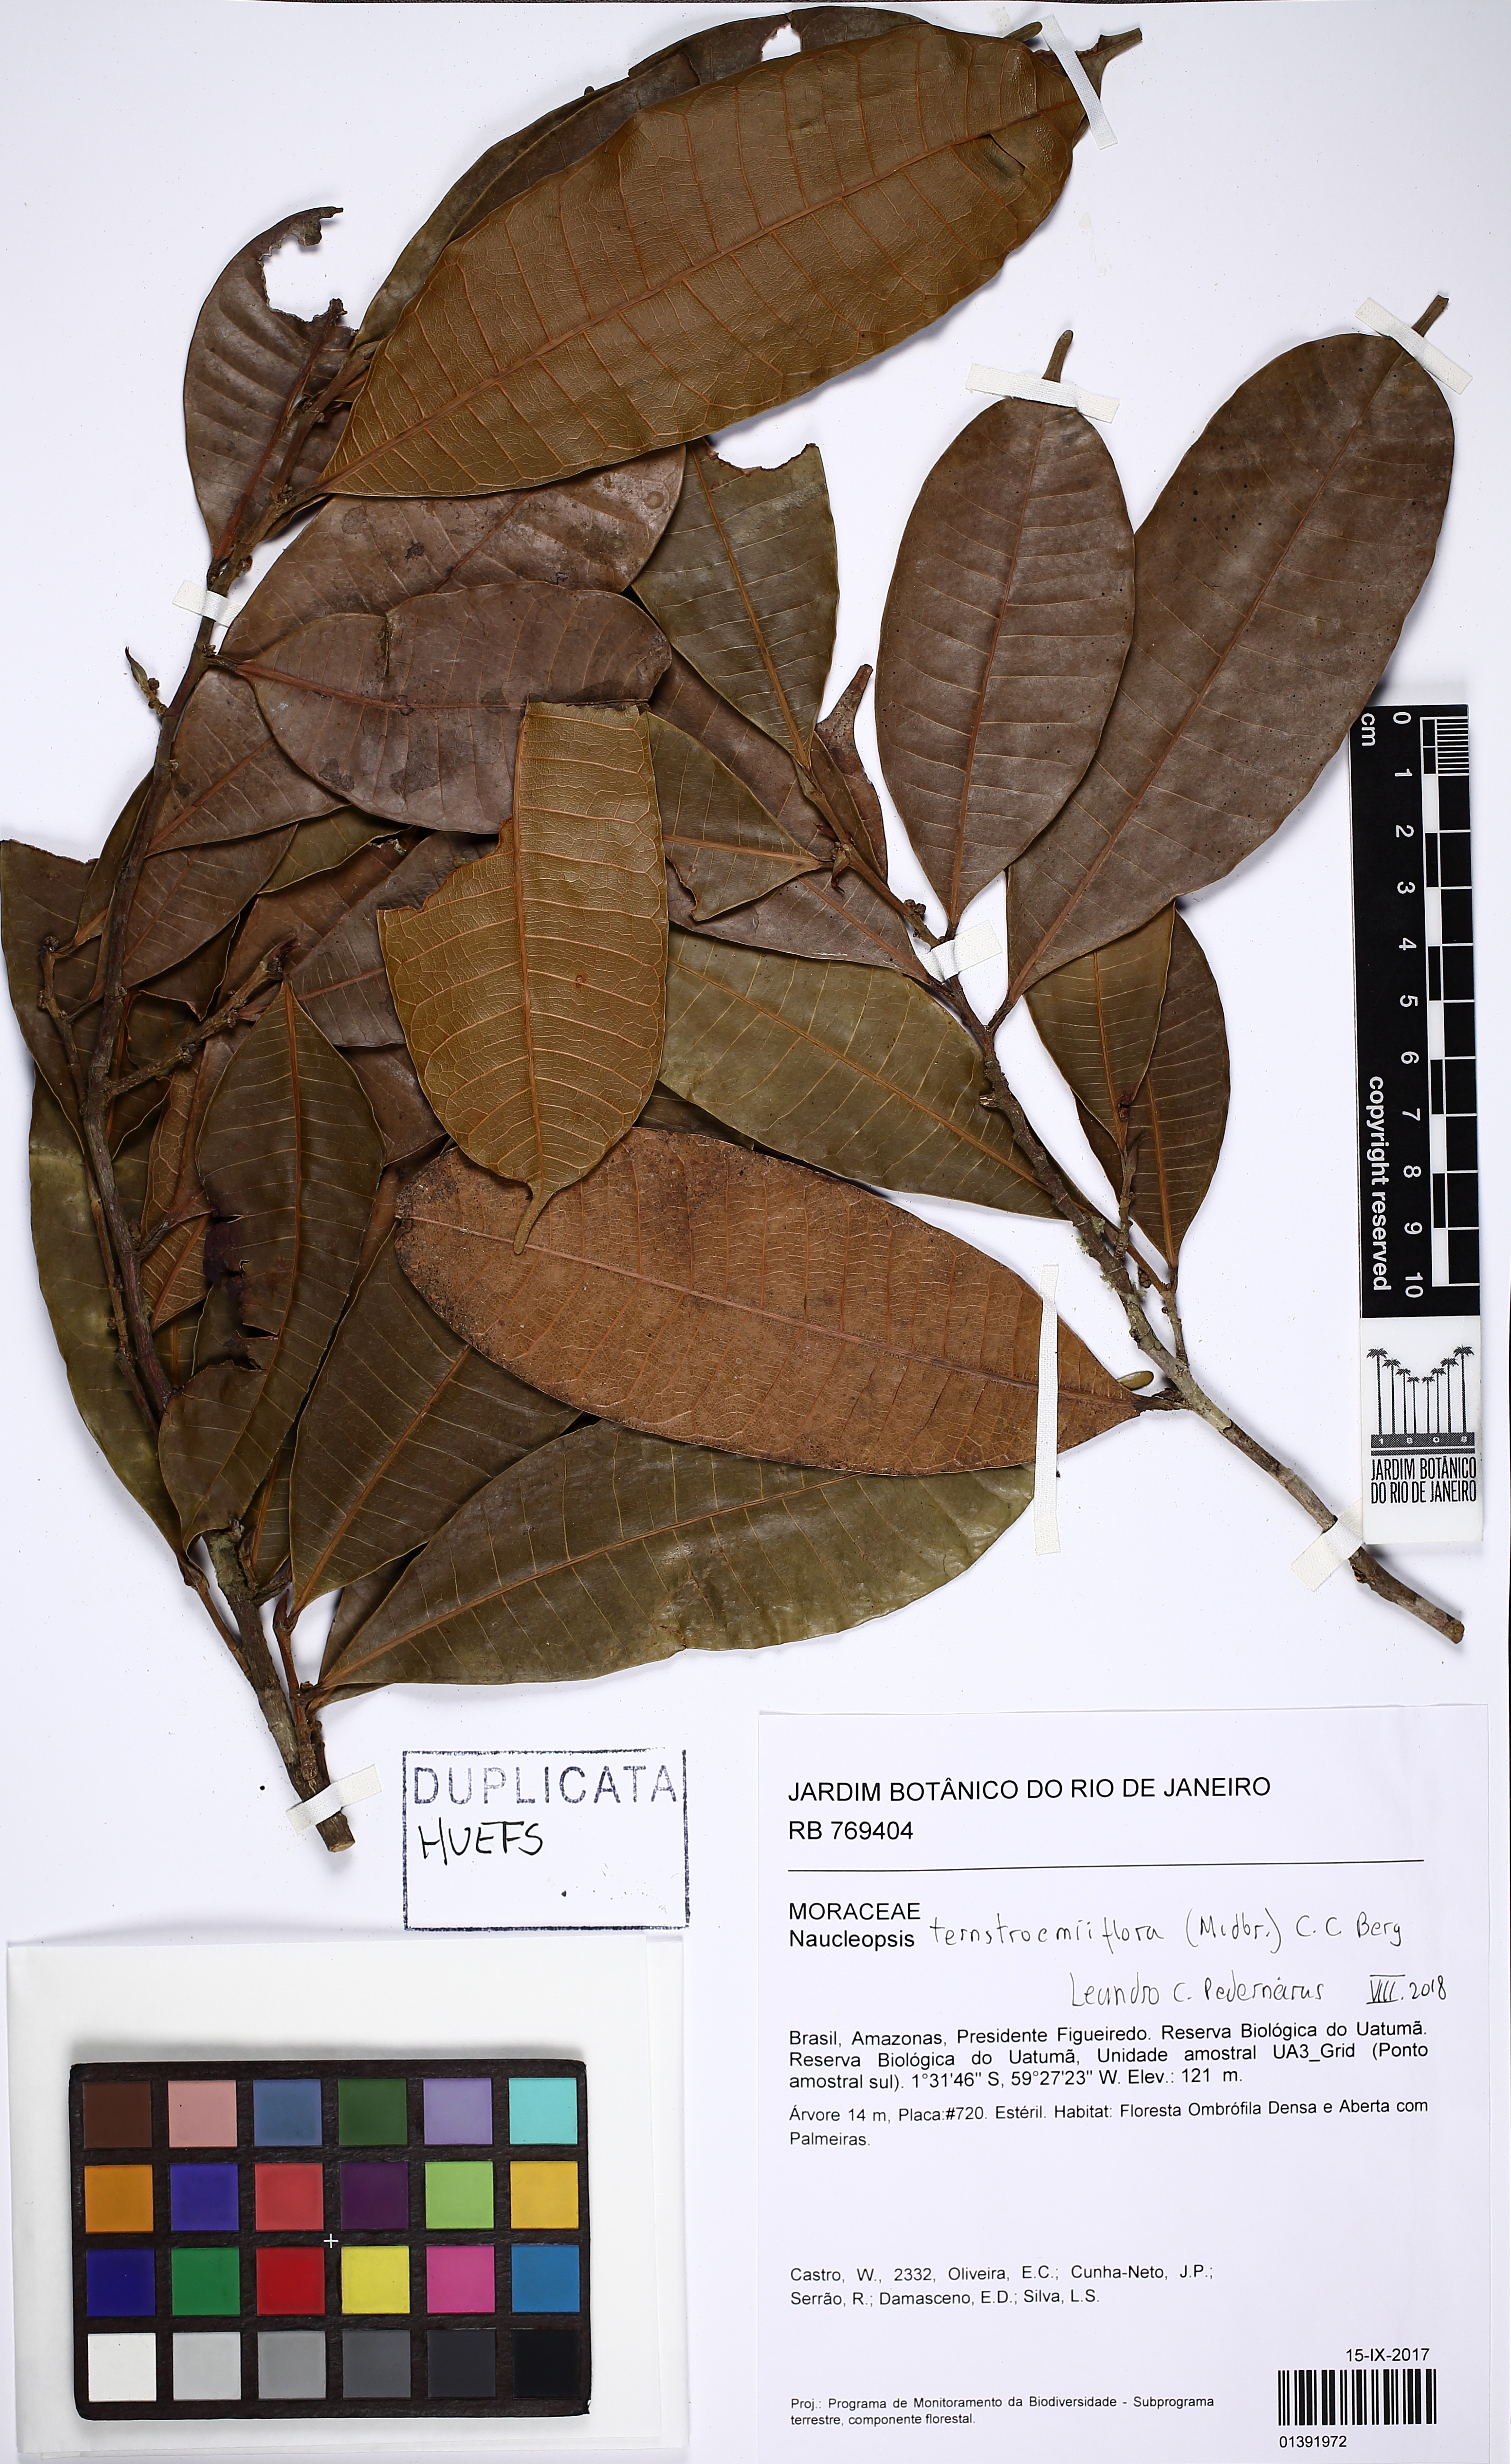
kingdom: Plantae
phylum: Tracheophyta
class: Magnoliopsida
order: Rosales
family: Moraceae
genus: Naucleopsis
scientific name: Naucleopsis ternstroemiiflora
